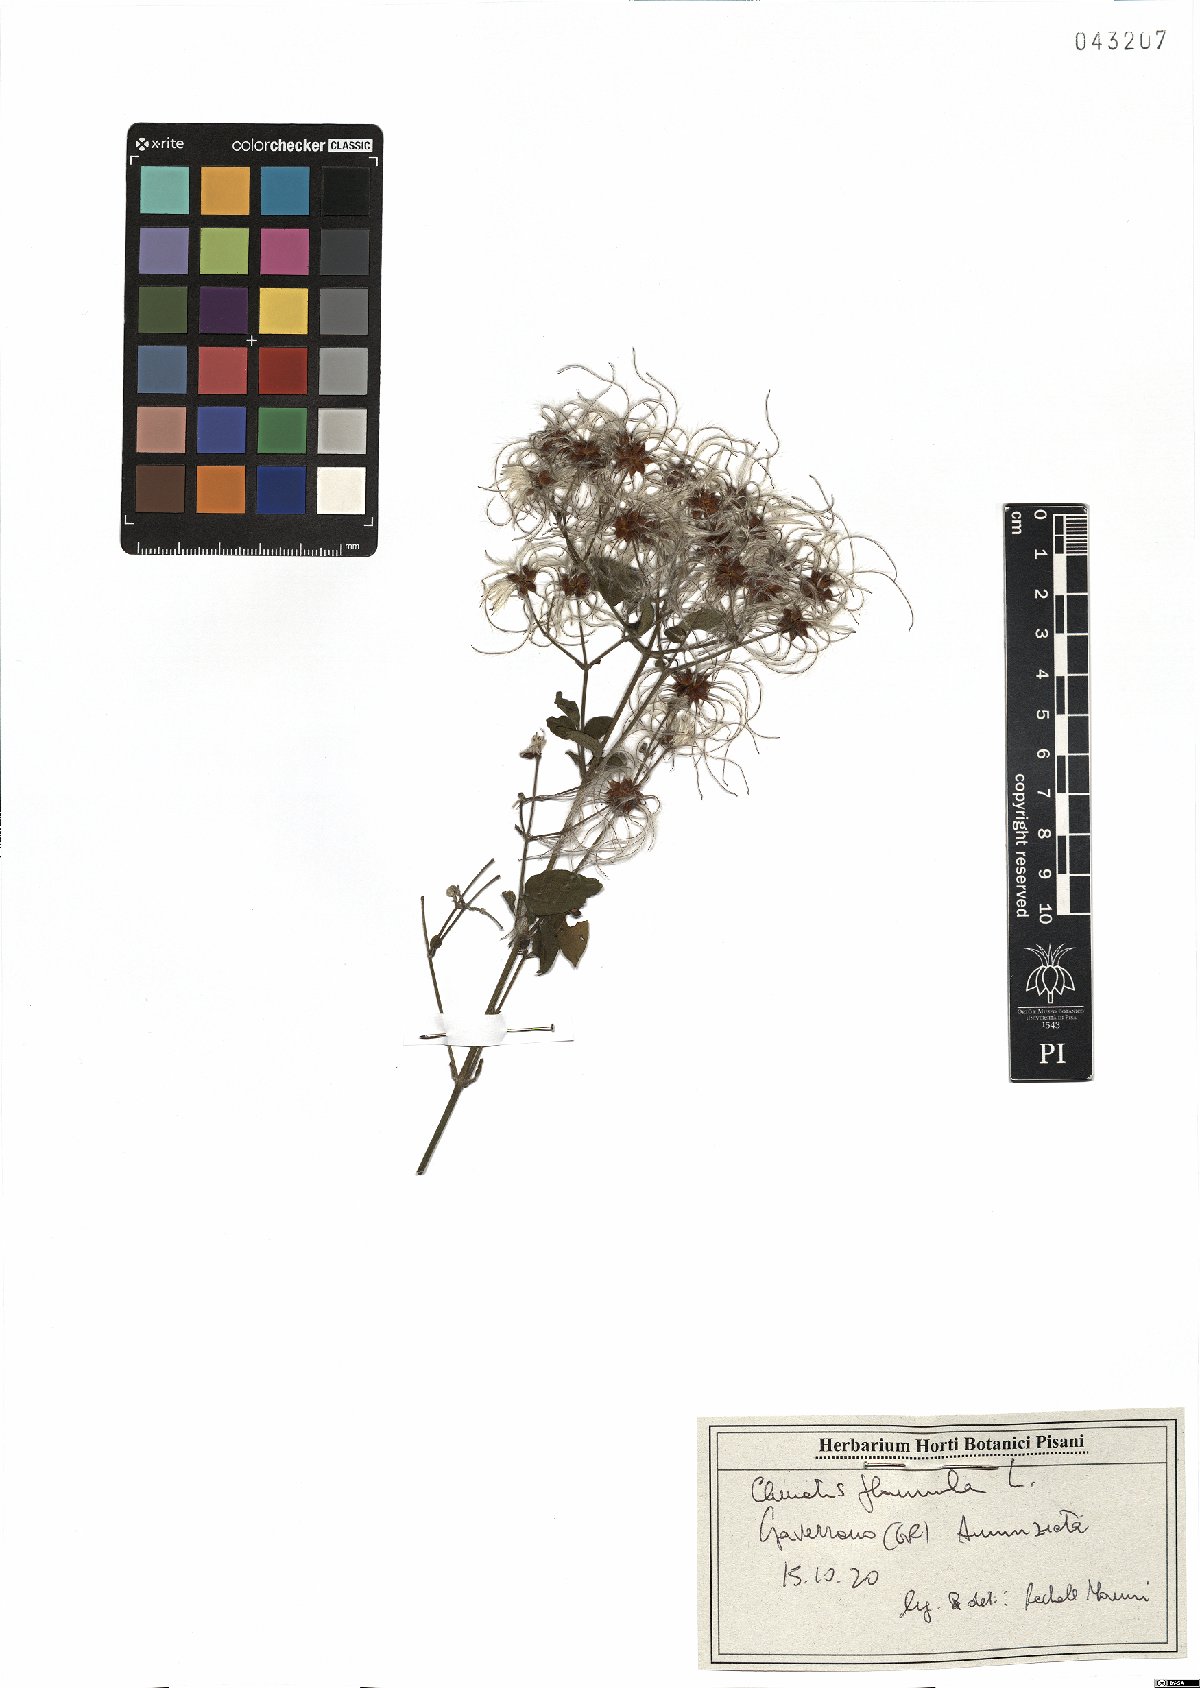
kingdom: Plantae
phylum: Tracheophyta
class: Magnoliopsida
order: Ranunculales
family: Ranunculaceae
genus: Clematis
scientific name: Clematis flammula
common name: Virgin's-bower
